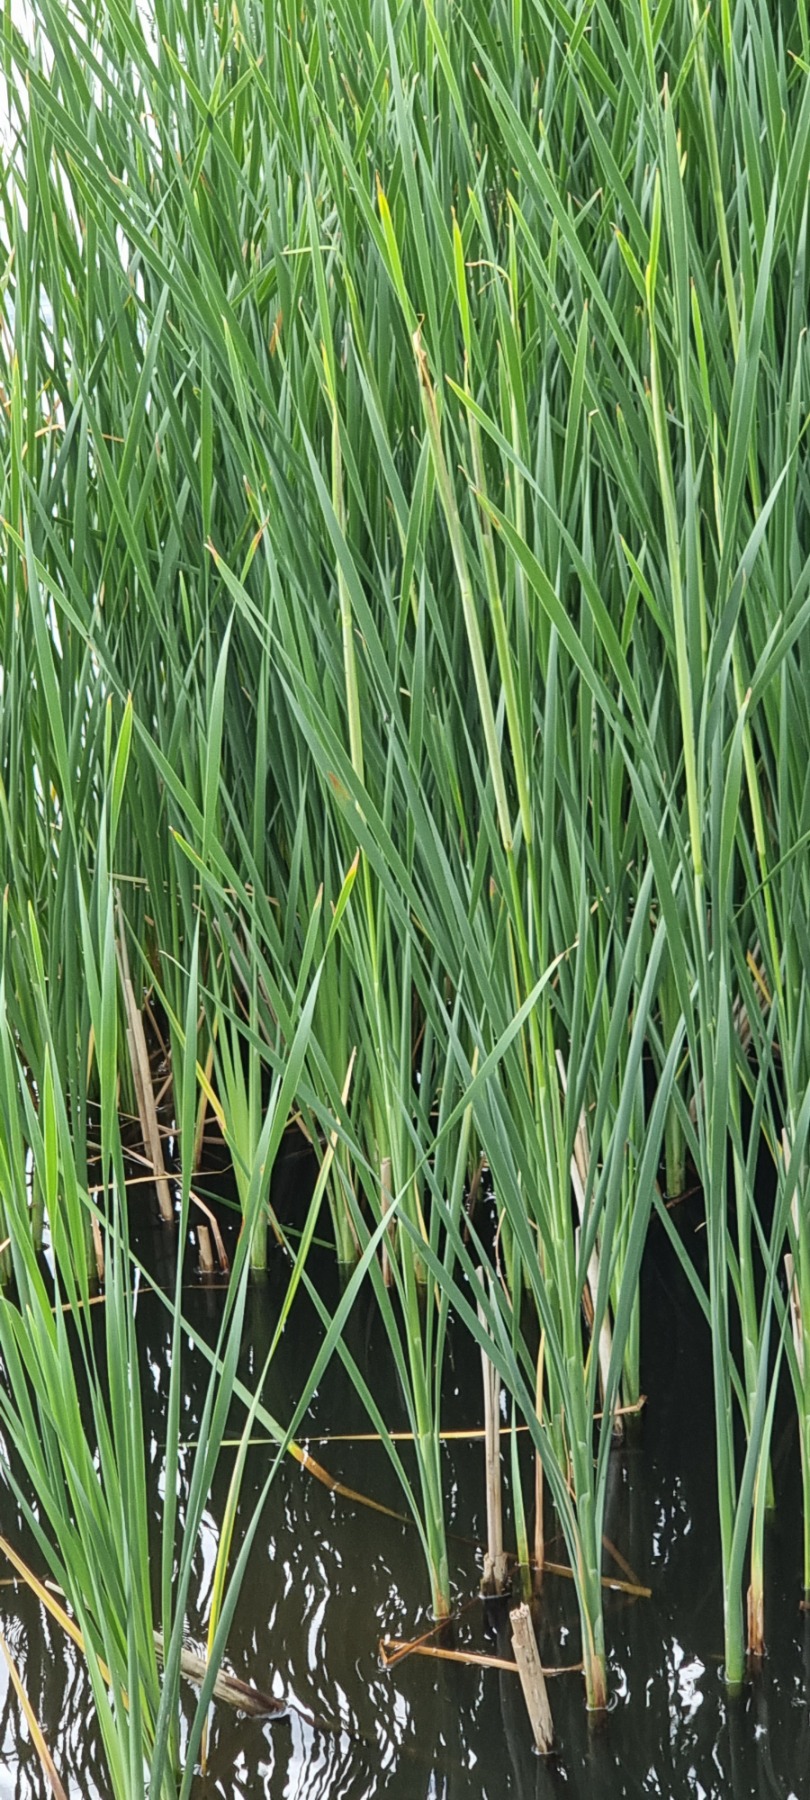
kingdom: Plantae
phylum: Tracheophyta
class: Liliopsida
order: Poales
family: Typhaceae
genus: Typha
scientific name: Typha angustifolia
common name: Smalbladet dunhammer
